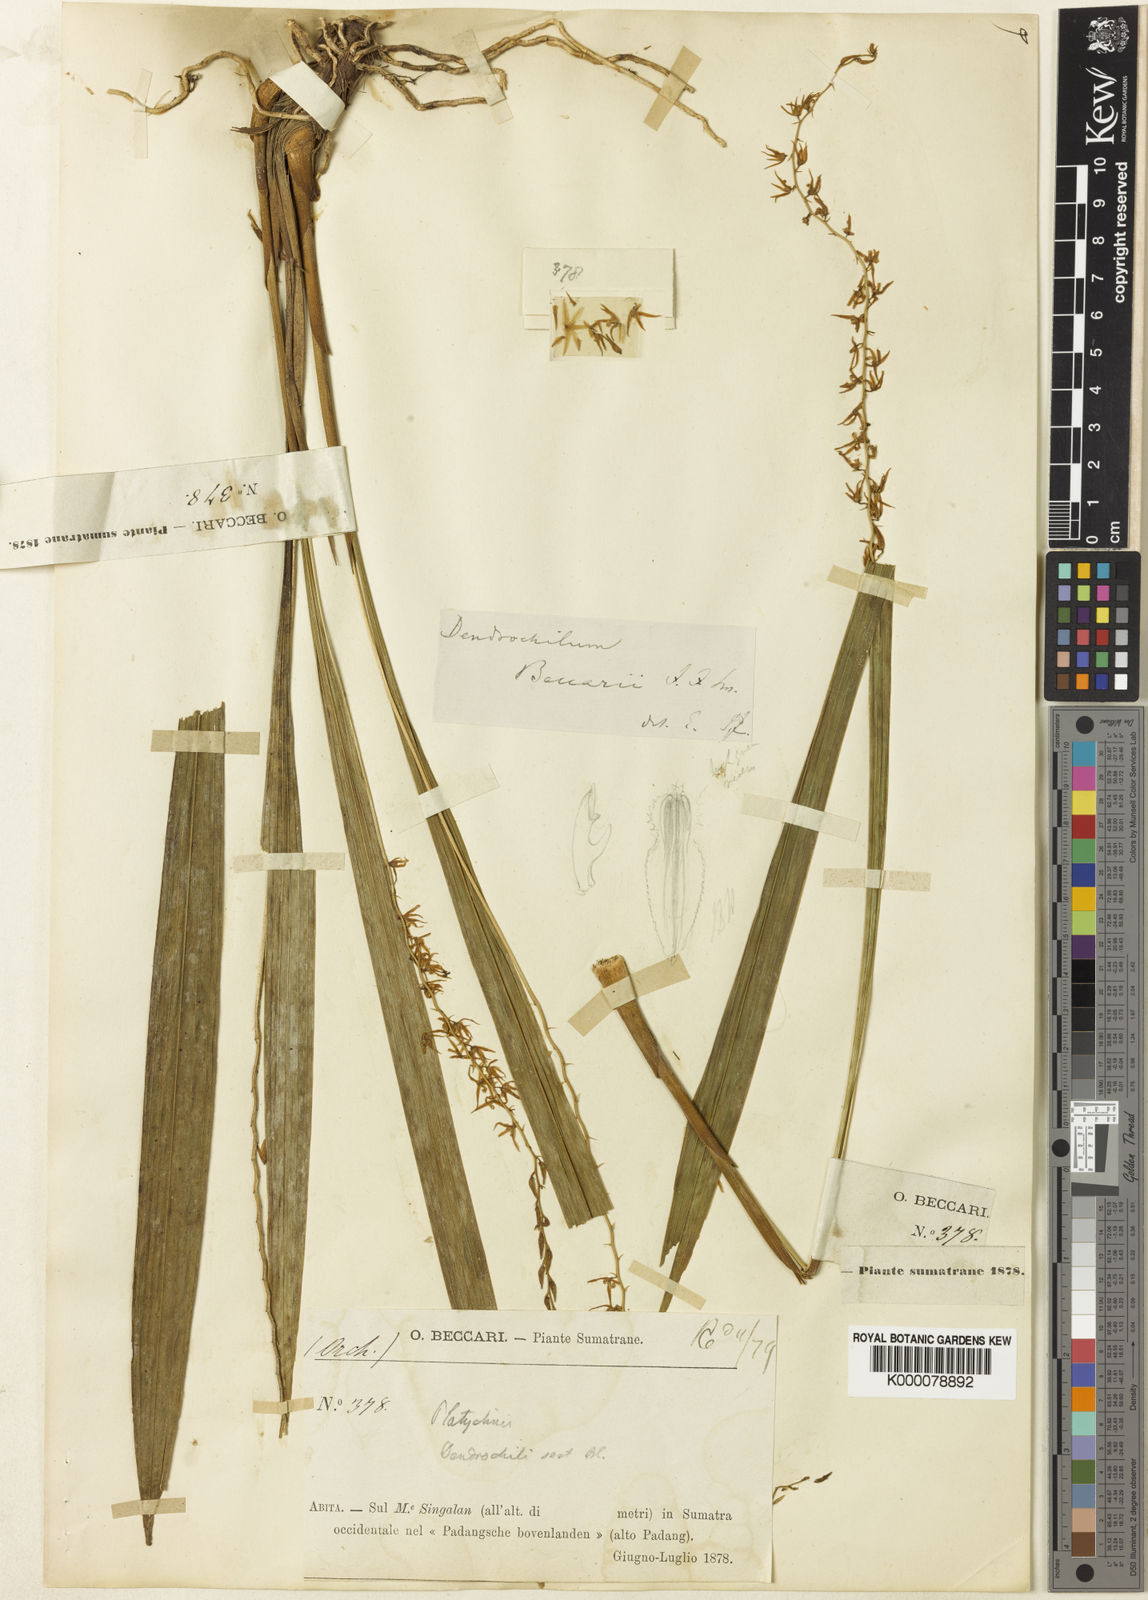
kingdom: Plantae
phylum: Tracheophyta
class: Liliopsida
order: Asparagales
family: Orchidaceae
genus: Coelogyne
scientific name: Coelogyne singalangensis
